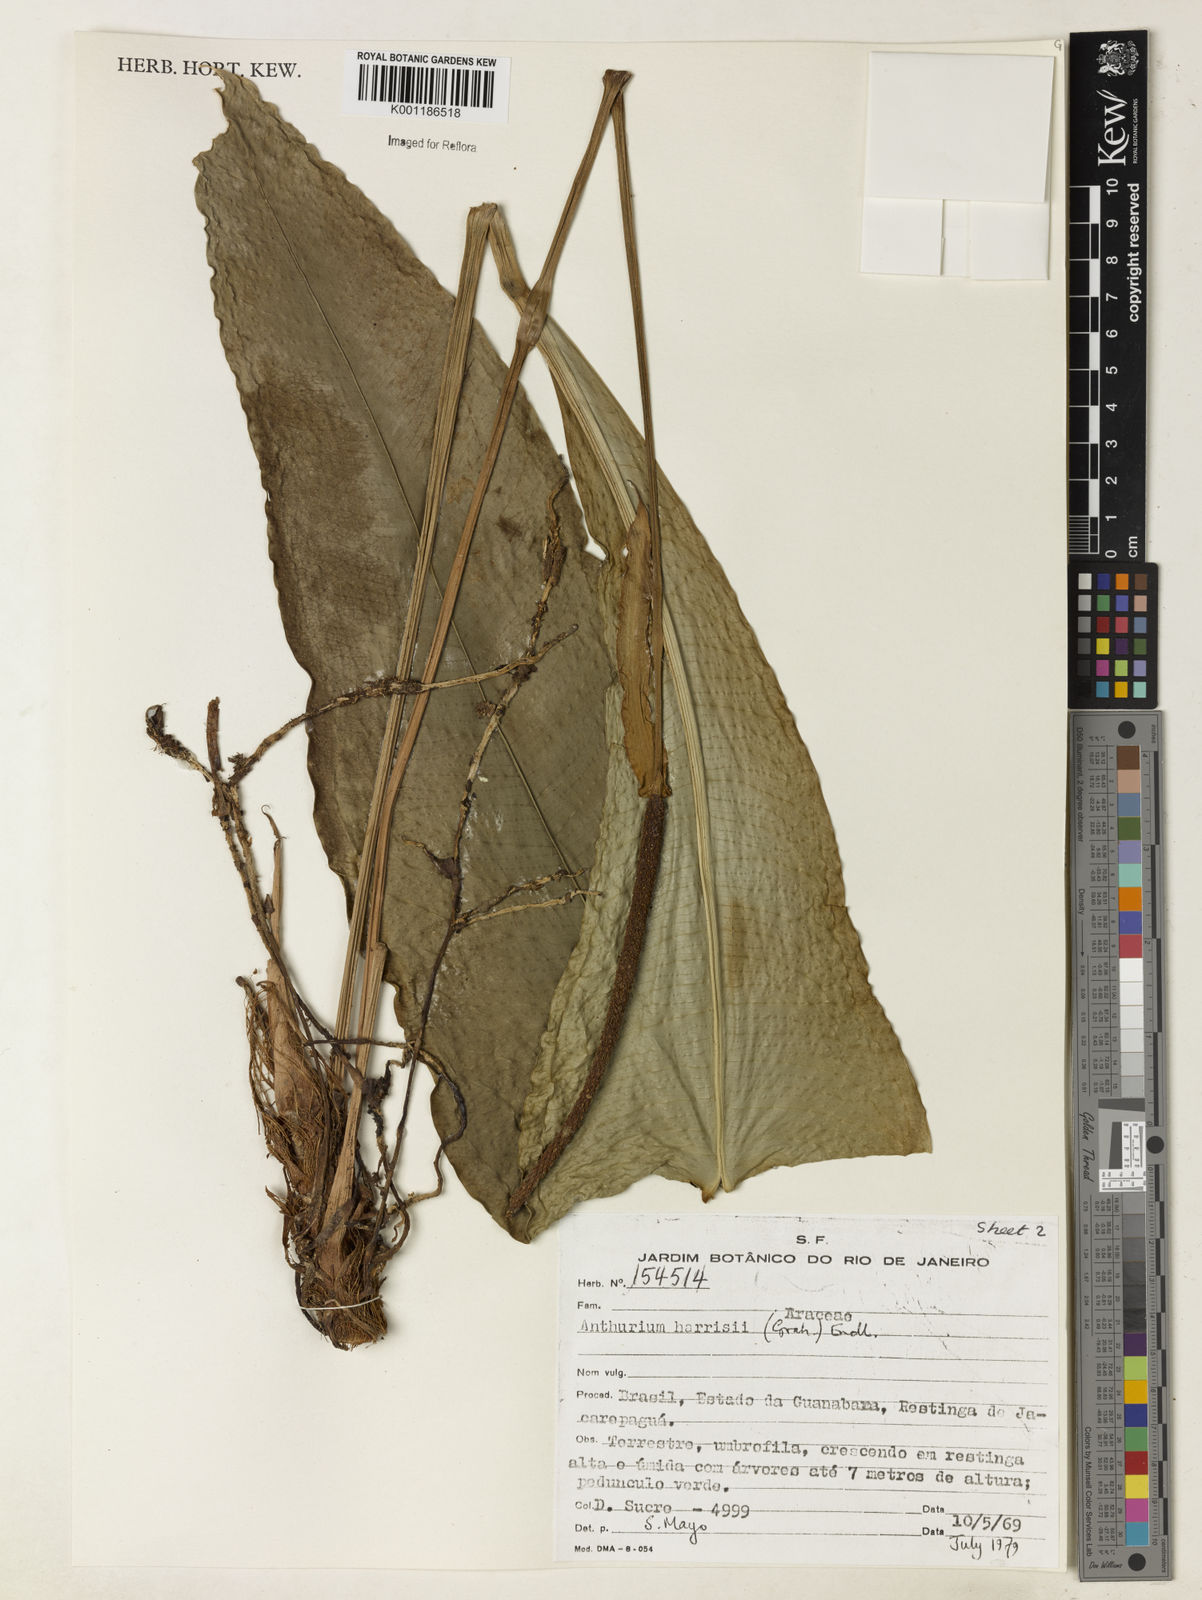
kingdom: Plantae
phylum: Tracheophyta
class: Liliopsida
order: Alismatales
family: Araceae
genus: Anthurium
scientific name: Anthurium harrisii
